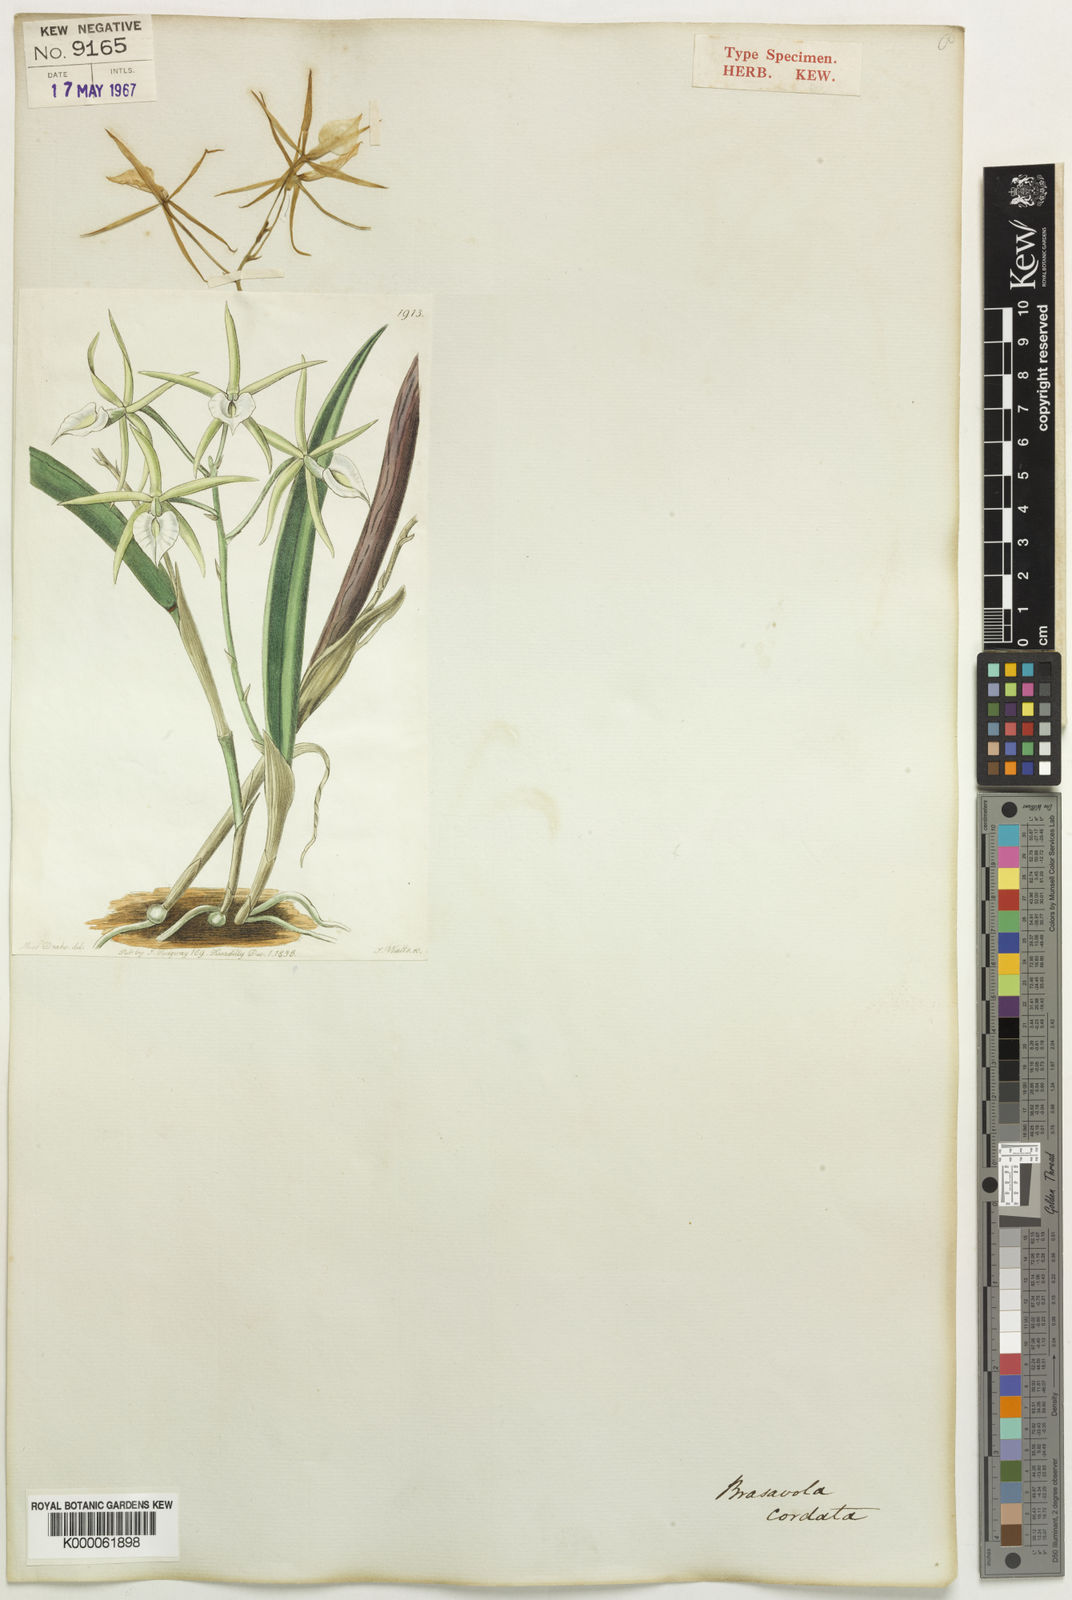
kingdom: Plantae
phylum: Tracheophyta
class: Liliopsida
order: Asparagales
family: Orchidaceae
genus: Brassavola
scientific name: Brassavola subulifolia
